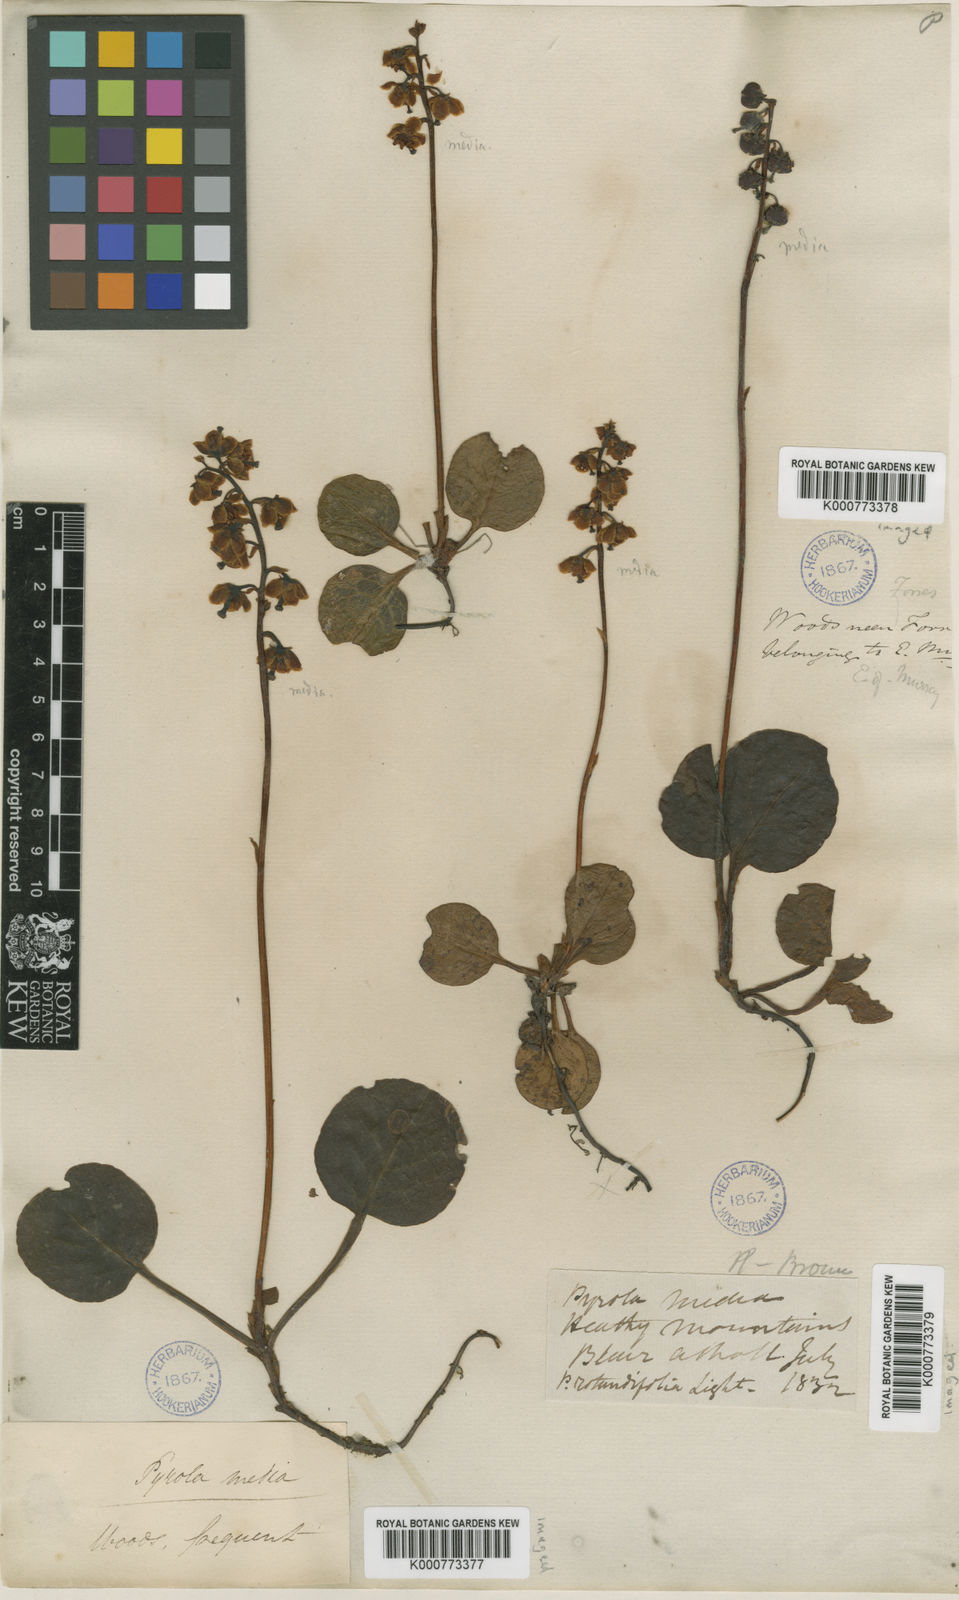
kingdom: Plantae
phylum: Tracheophyta
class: Magnoliopsida
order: Ericales
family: Ericaceae
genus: Pyrola
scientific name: Pyrola media
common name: Intermediate wintergreen
